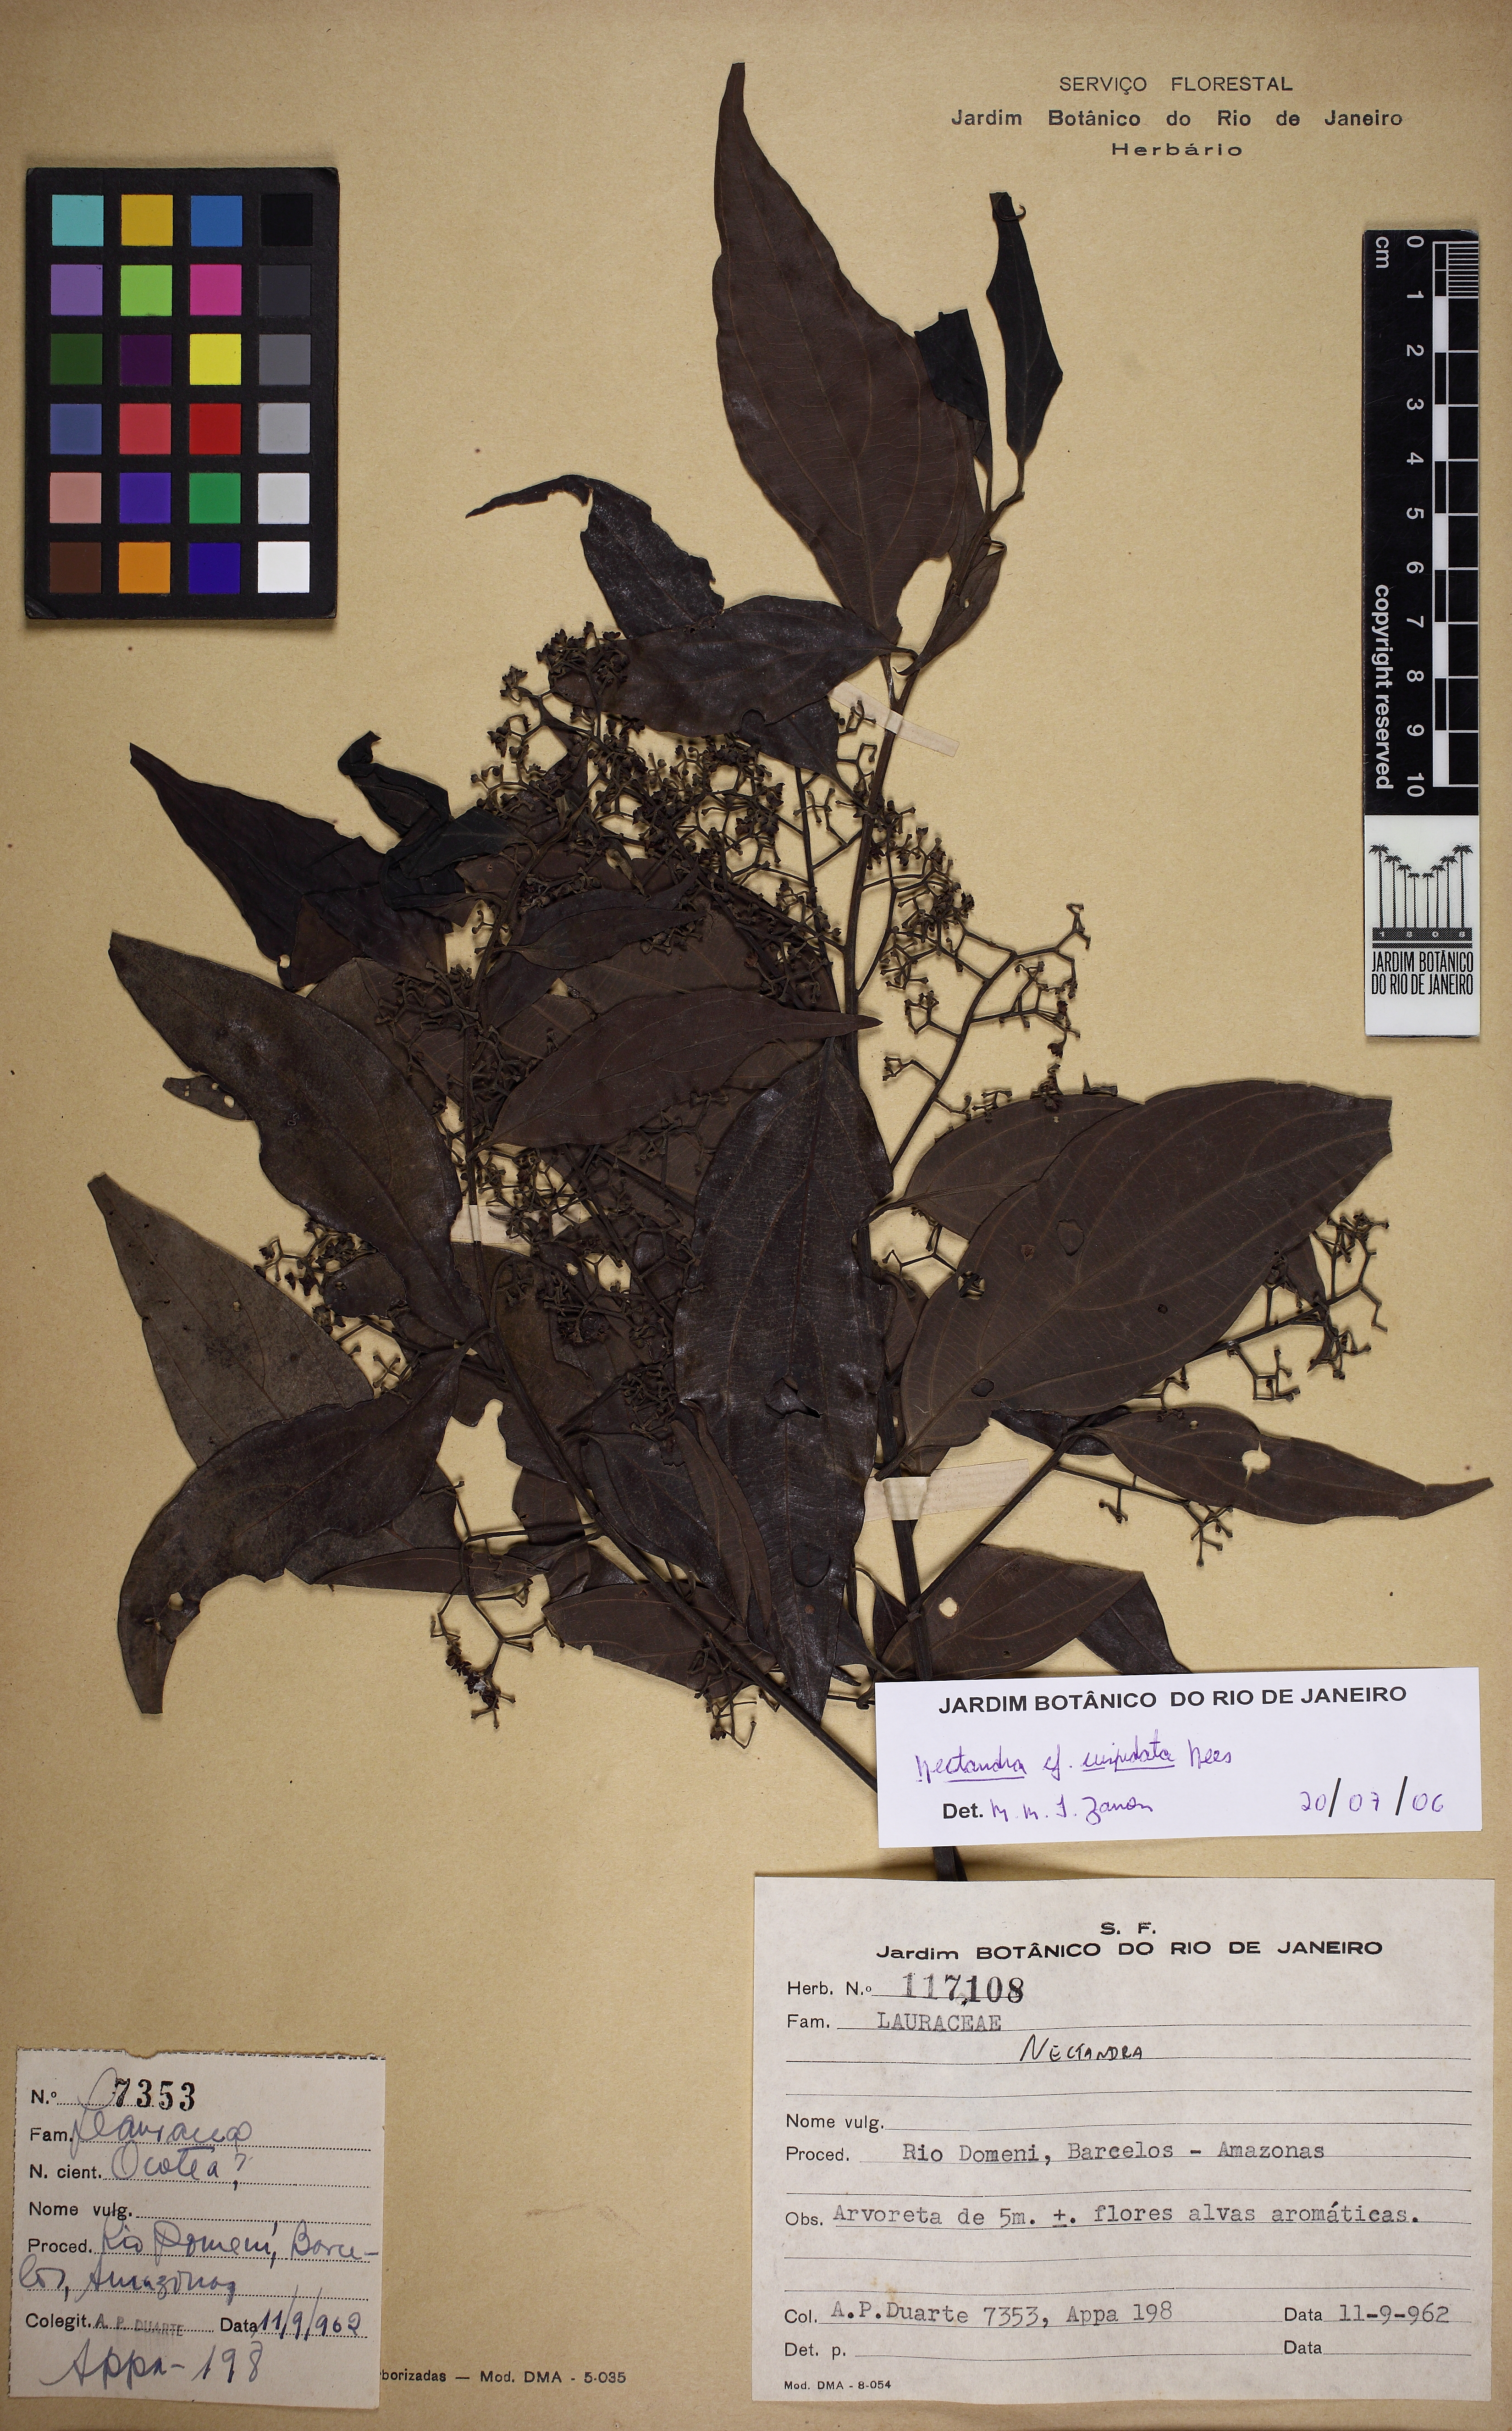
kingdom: Plantae
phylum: Tracheophyta
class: Magnoliopsida
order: Laurales
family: Lauraceae
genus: Nectandra
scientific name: Nectandra cuspidata
